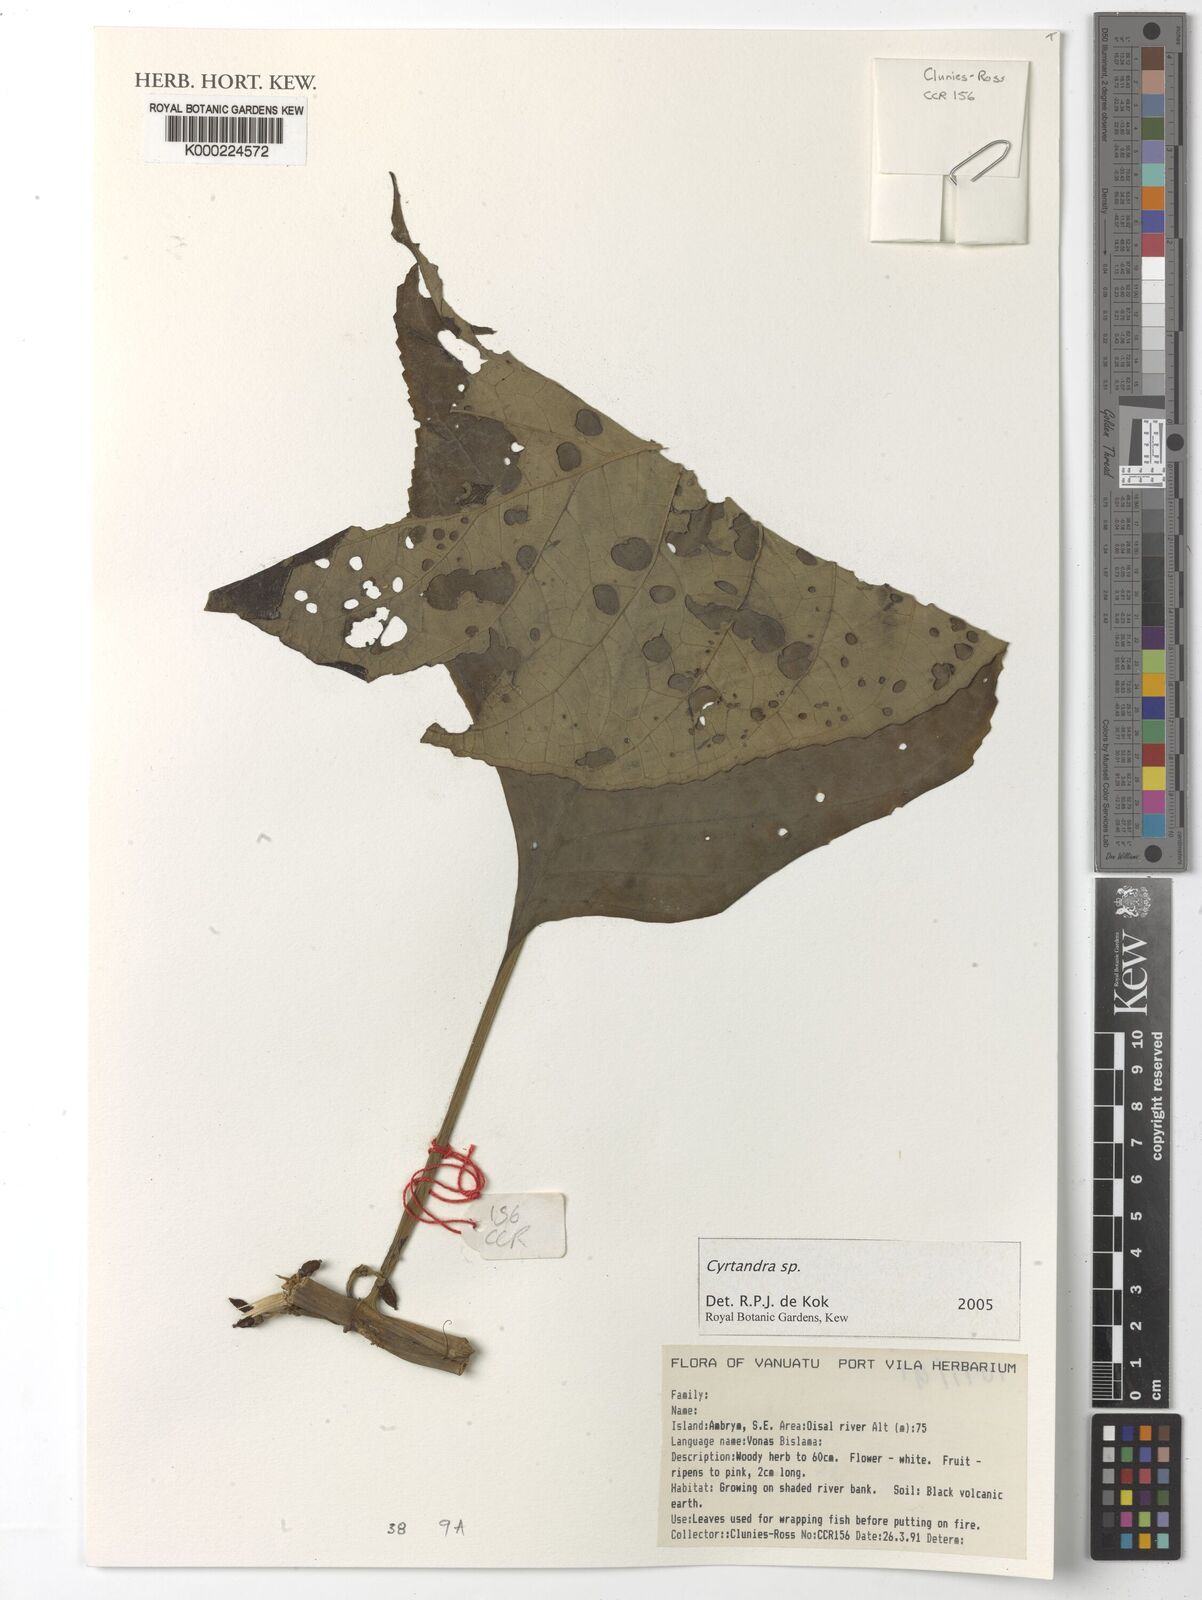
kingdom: Plantae
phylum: Tracheophyta
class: Magnoliopsida
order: Lamiales
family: Gesneriaceae
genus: Cyrtandra
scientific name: Cyrtandra
